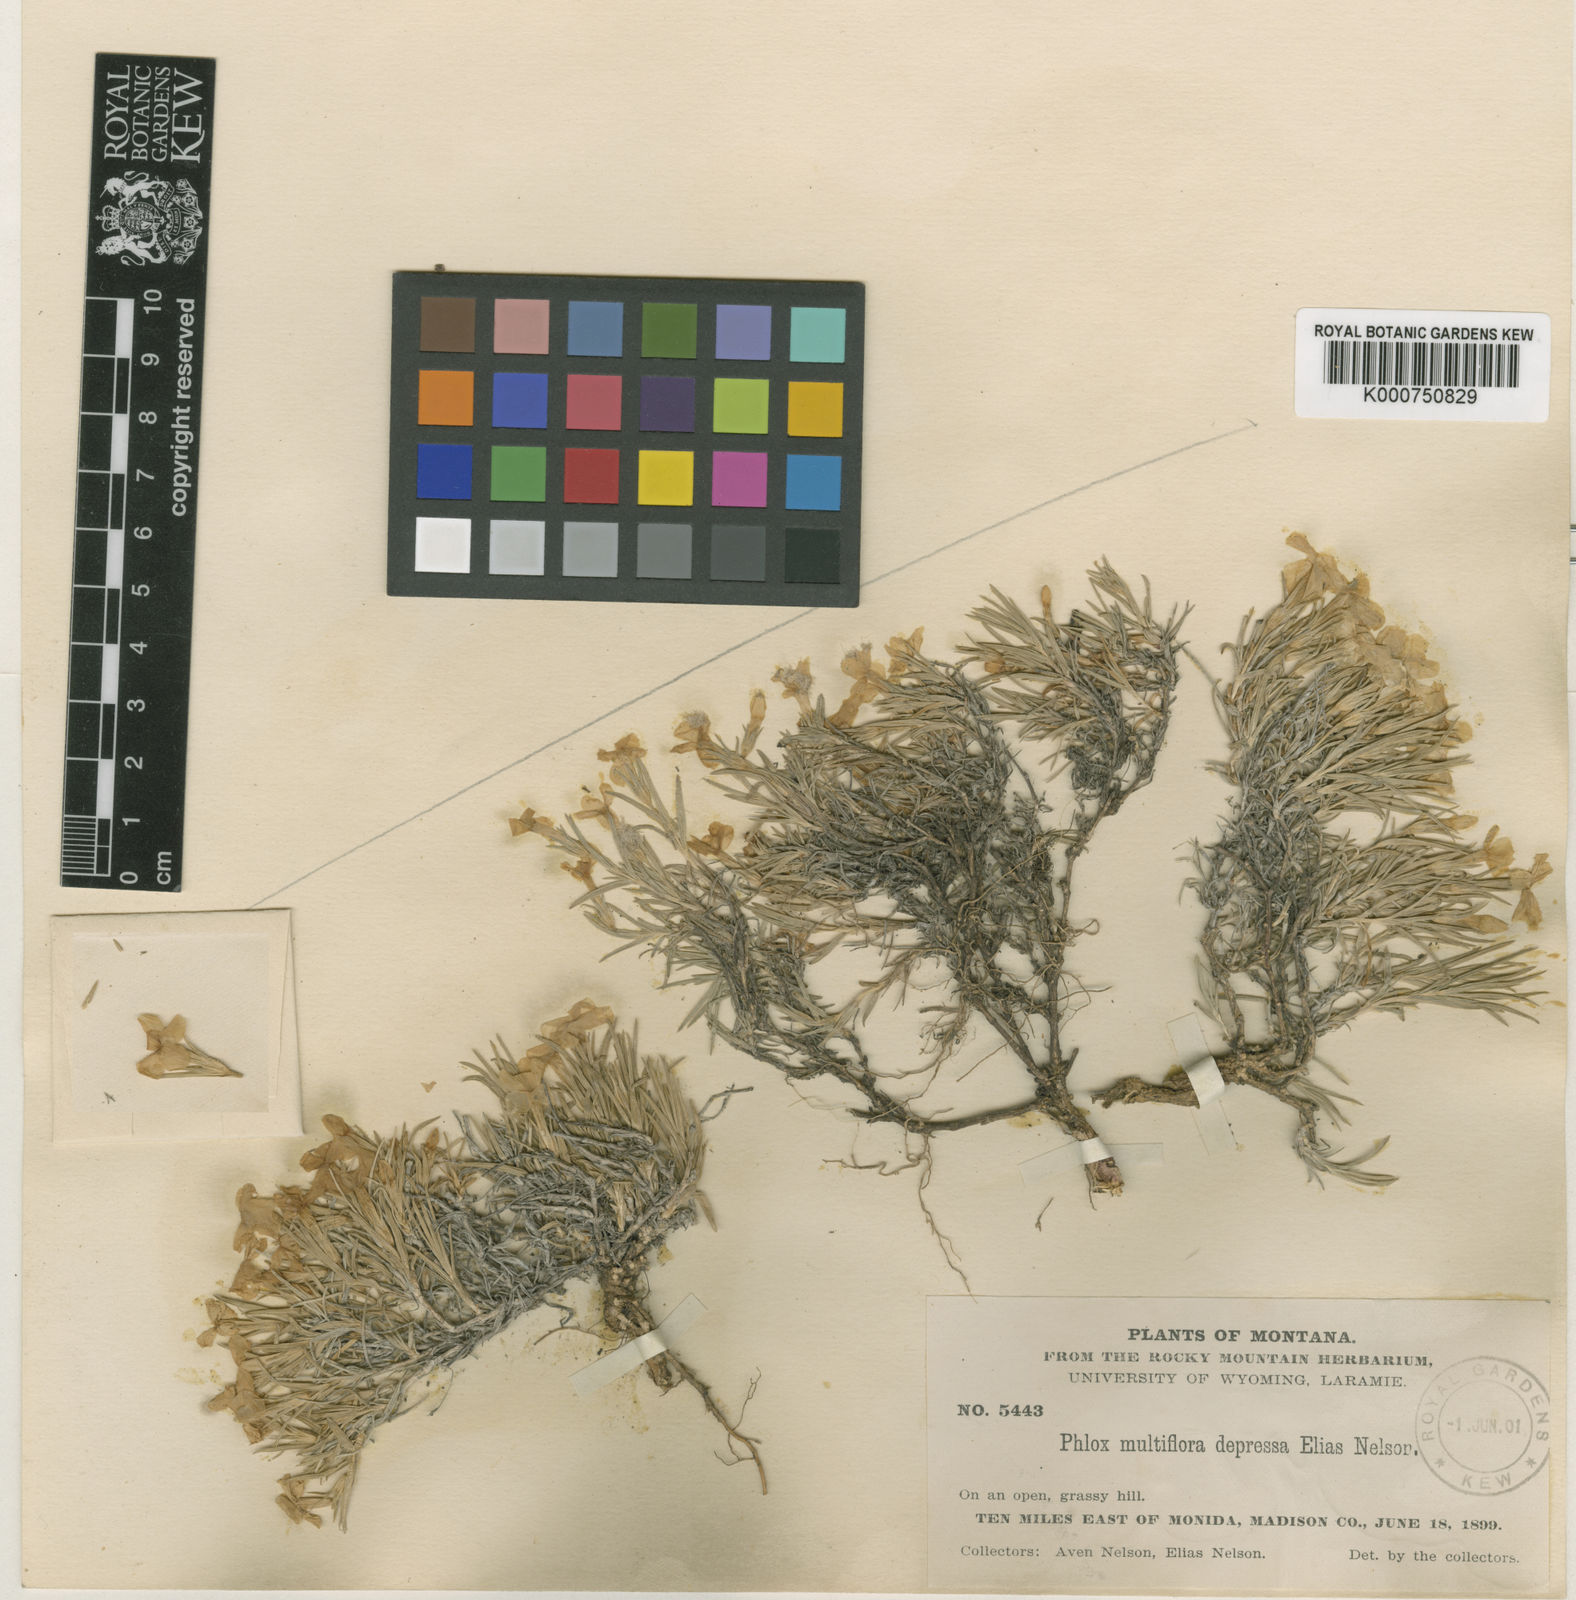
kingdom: Plantae
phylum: Tracheophyta
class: Magnoliopsida
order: Ericales
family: Polemoniaceae
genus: Phlox
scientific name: Phlox multiflora
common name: Rocky mountain phlox
